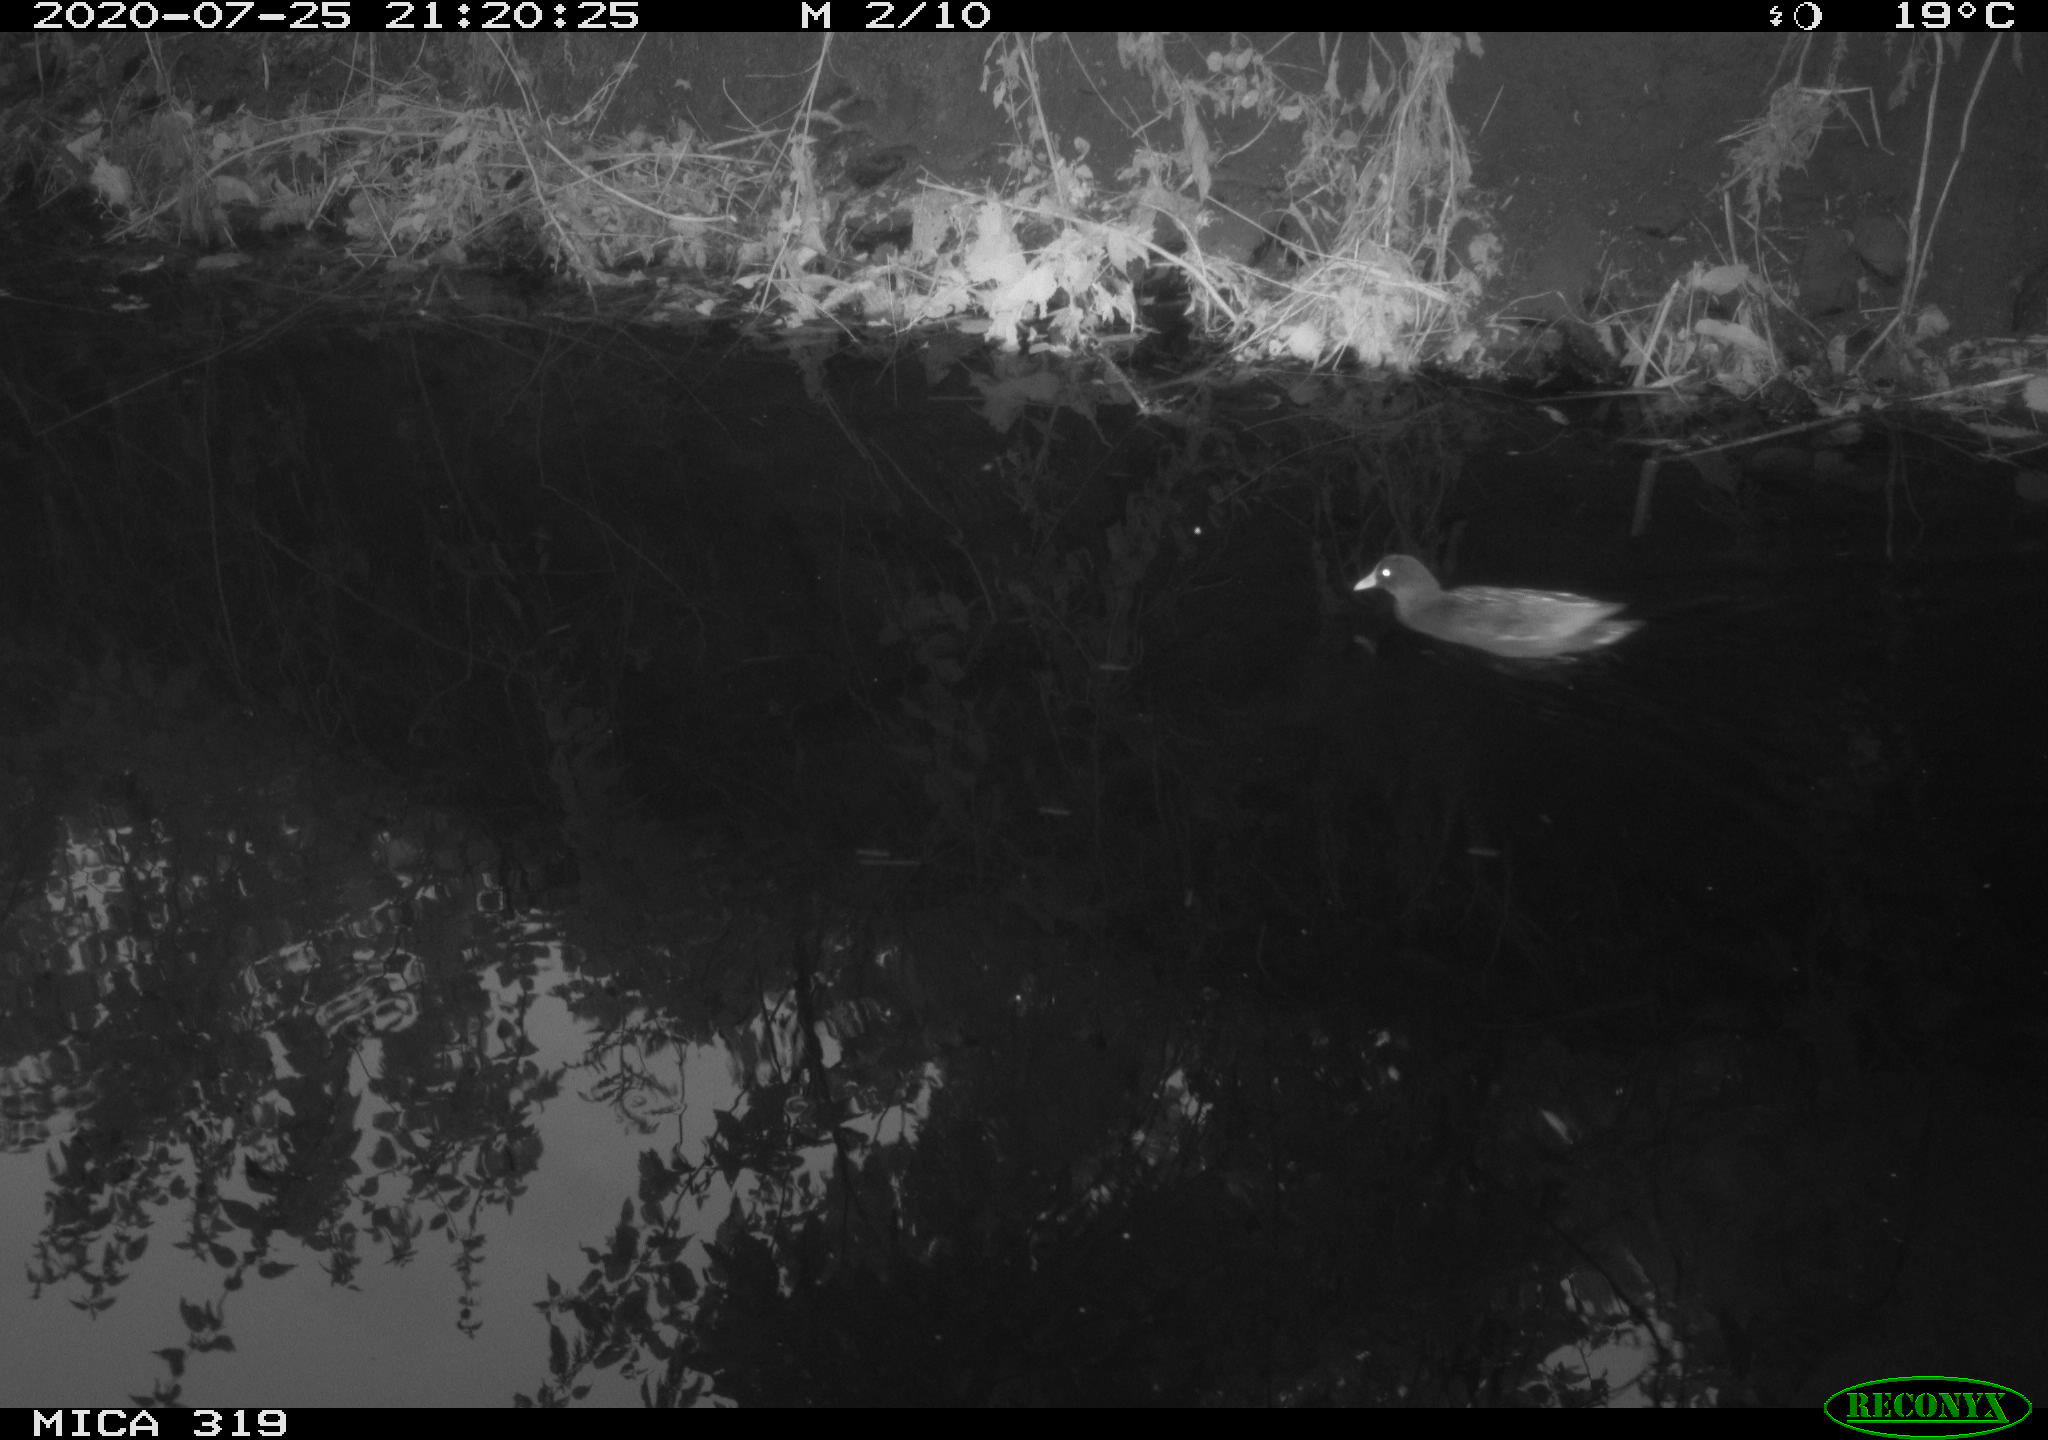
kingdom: Animalia
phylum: Chordata
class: Aves
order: Gruiformes
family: Rallidae
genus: Gallinula
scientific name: Gallinula chloropus
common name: Common moorhen
